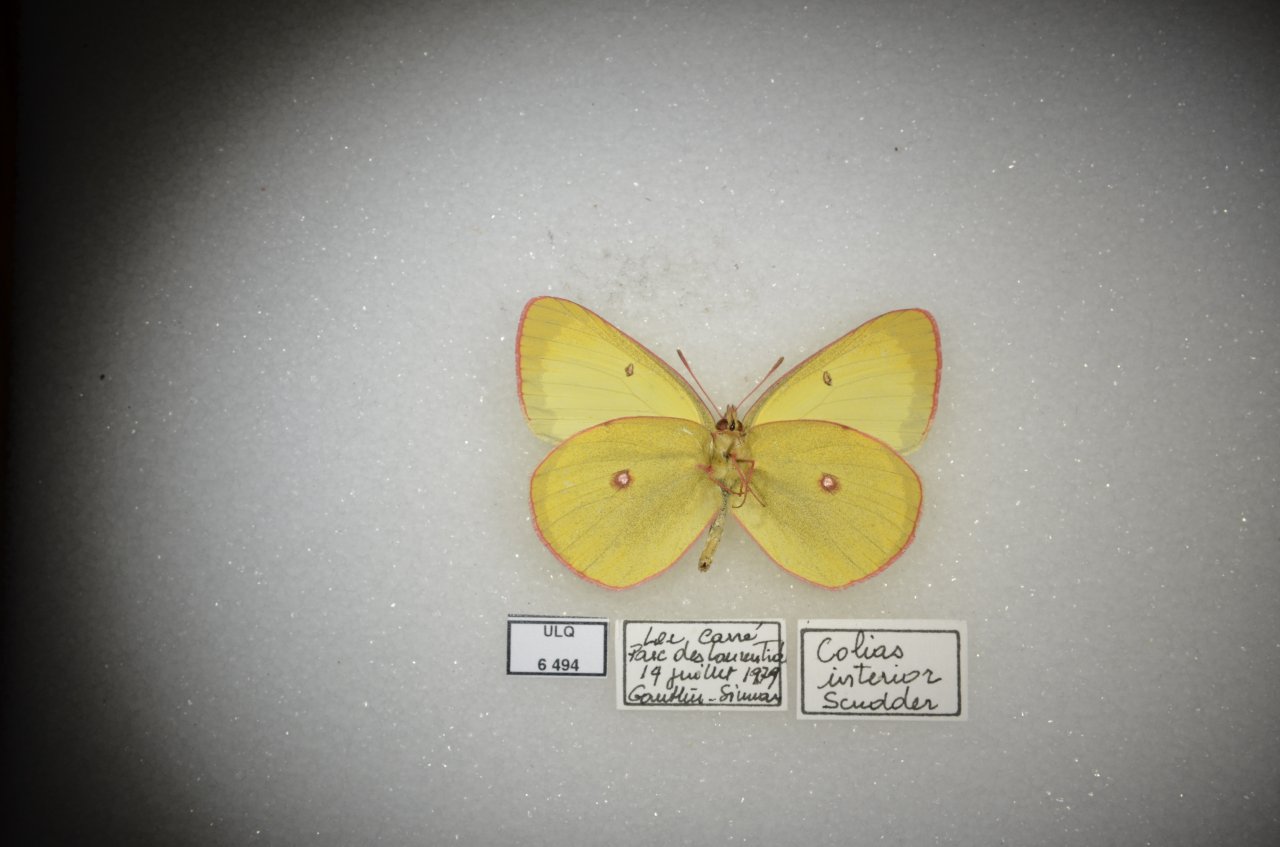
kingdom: Animalia
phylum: Arthropoda
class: Insecta
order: Lepidoptera
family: Pieridae
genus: Colias
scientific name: Colias interior
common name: Pink-edged Sulphur
